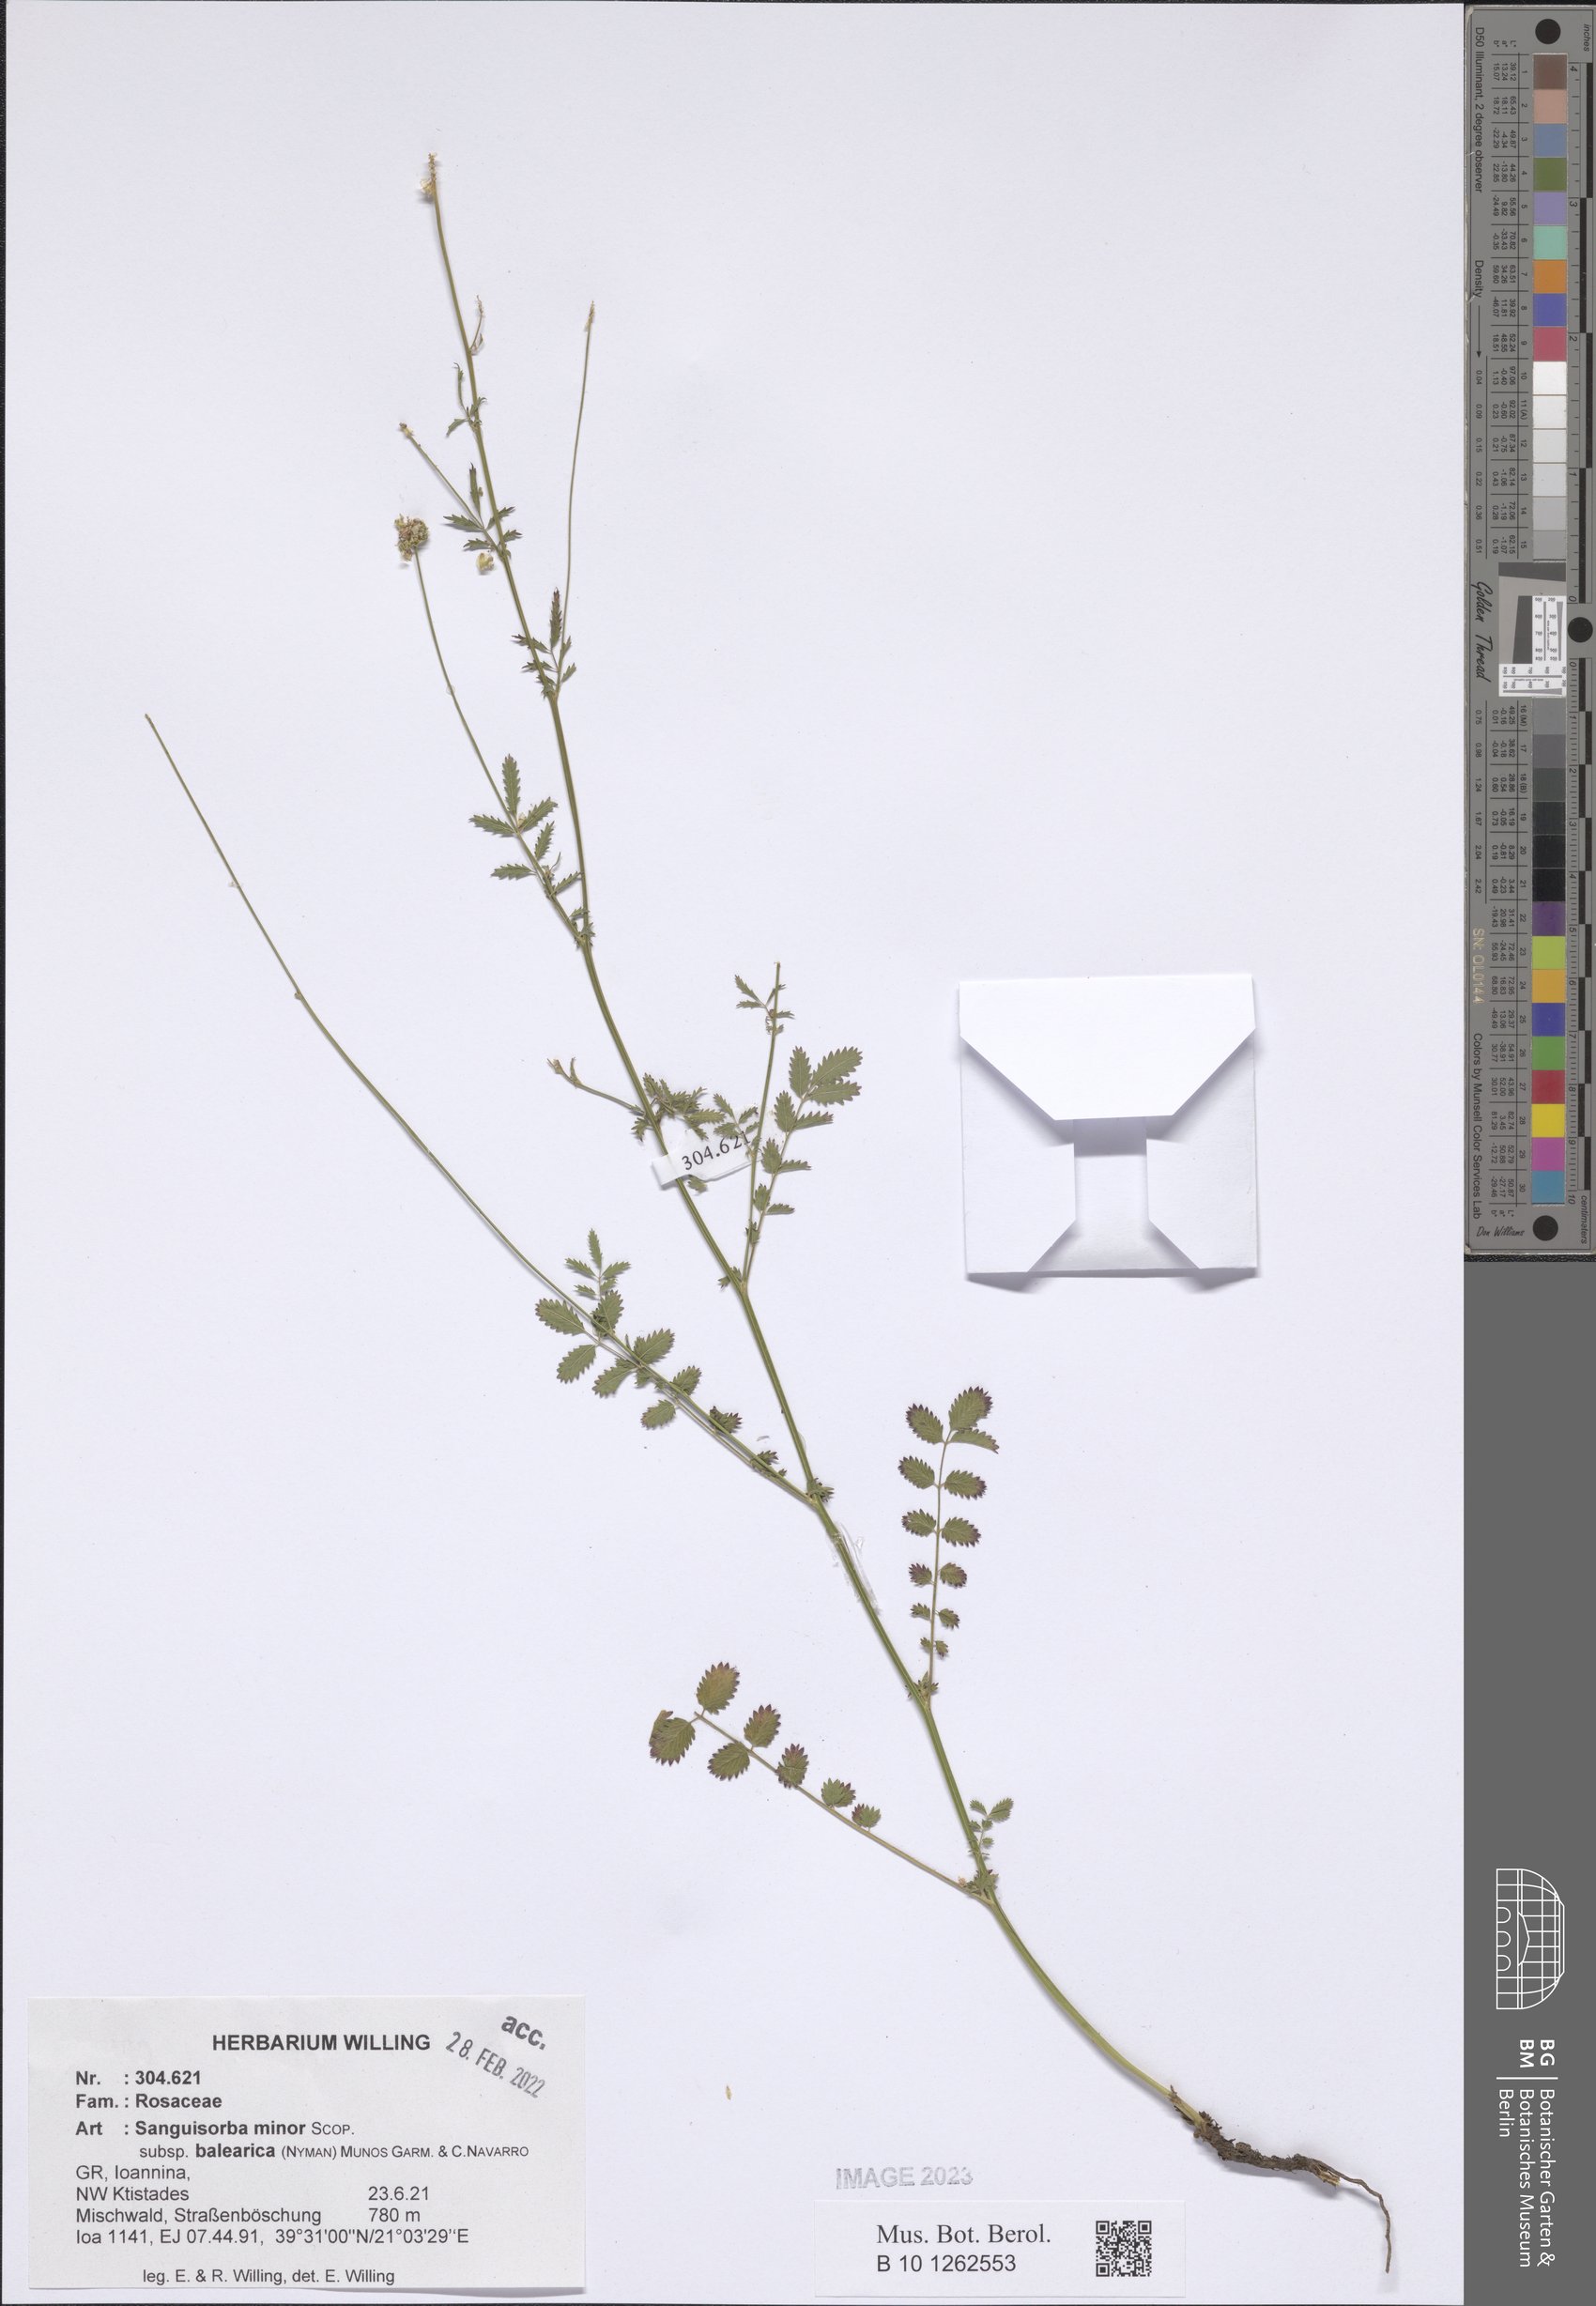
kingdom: Plantae
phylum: Tracheophyta
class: Magnoliopsida
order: Rosales
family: Rosaceae
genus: Poterium
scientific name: Poterium sanguisorba
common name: Salad burnet
